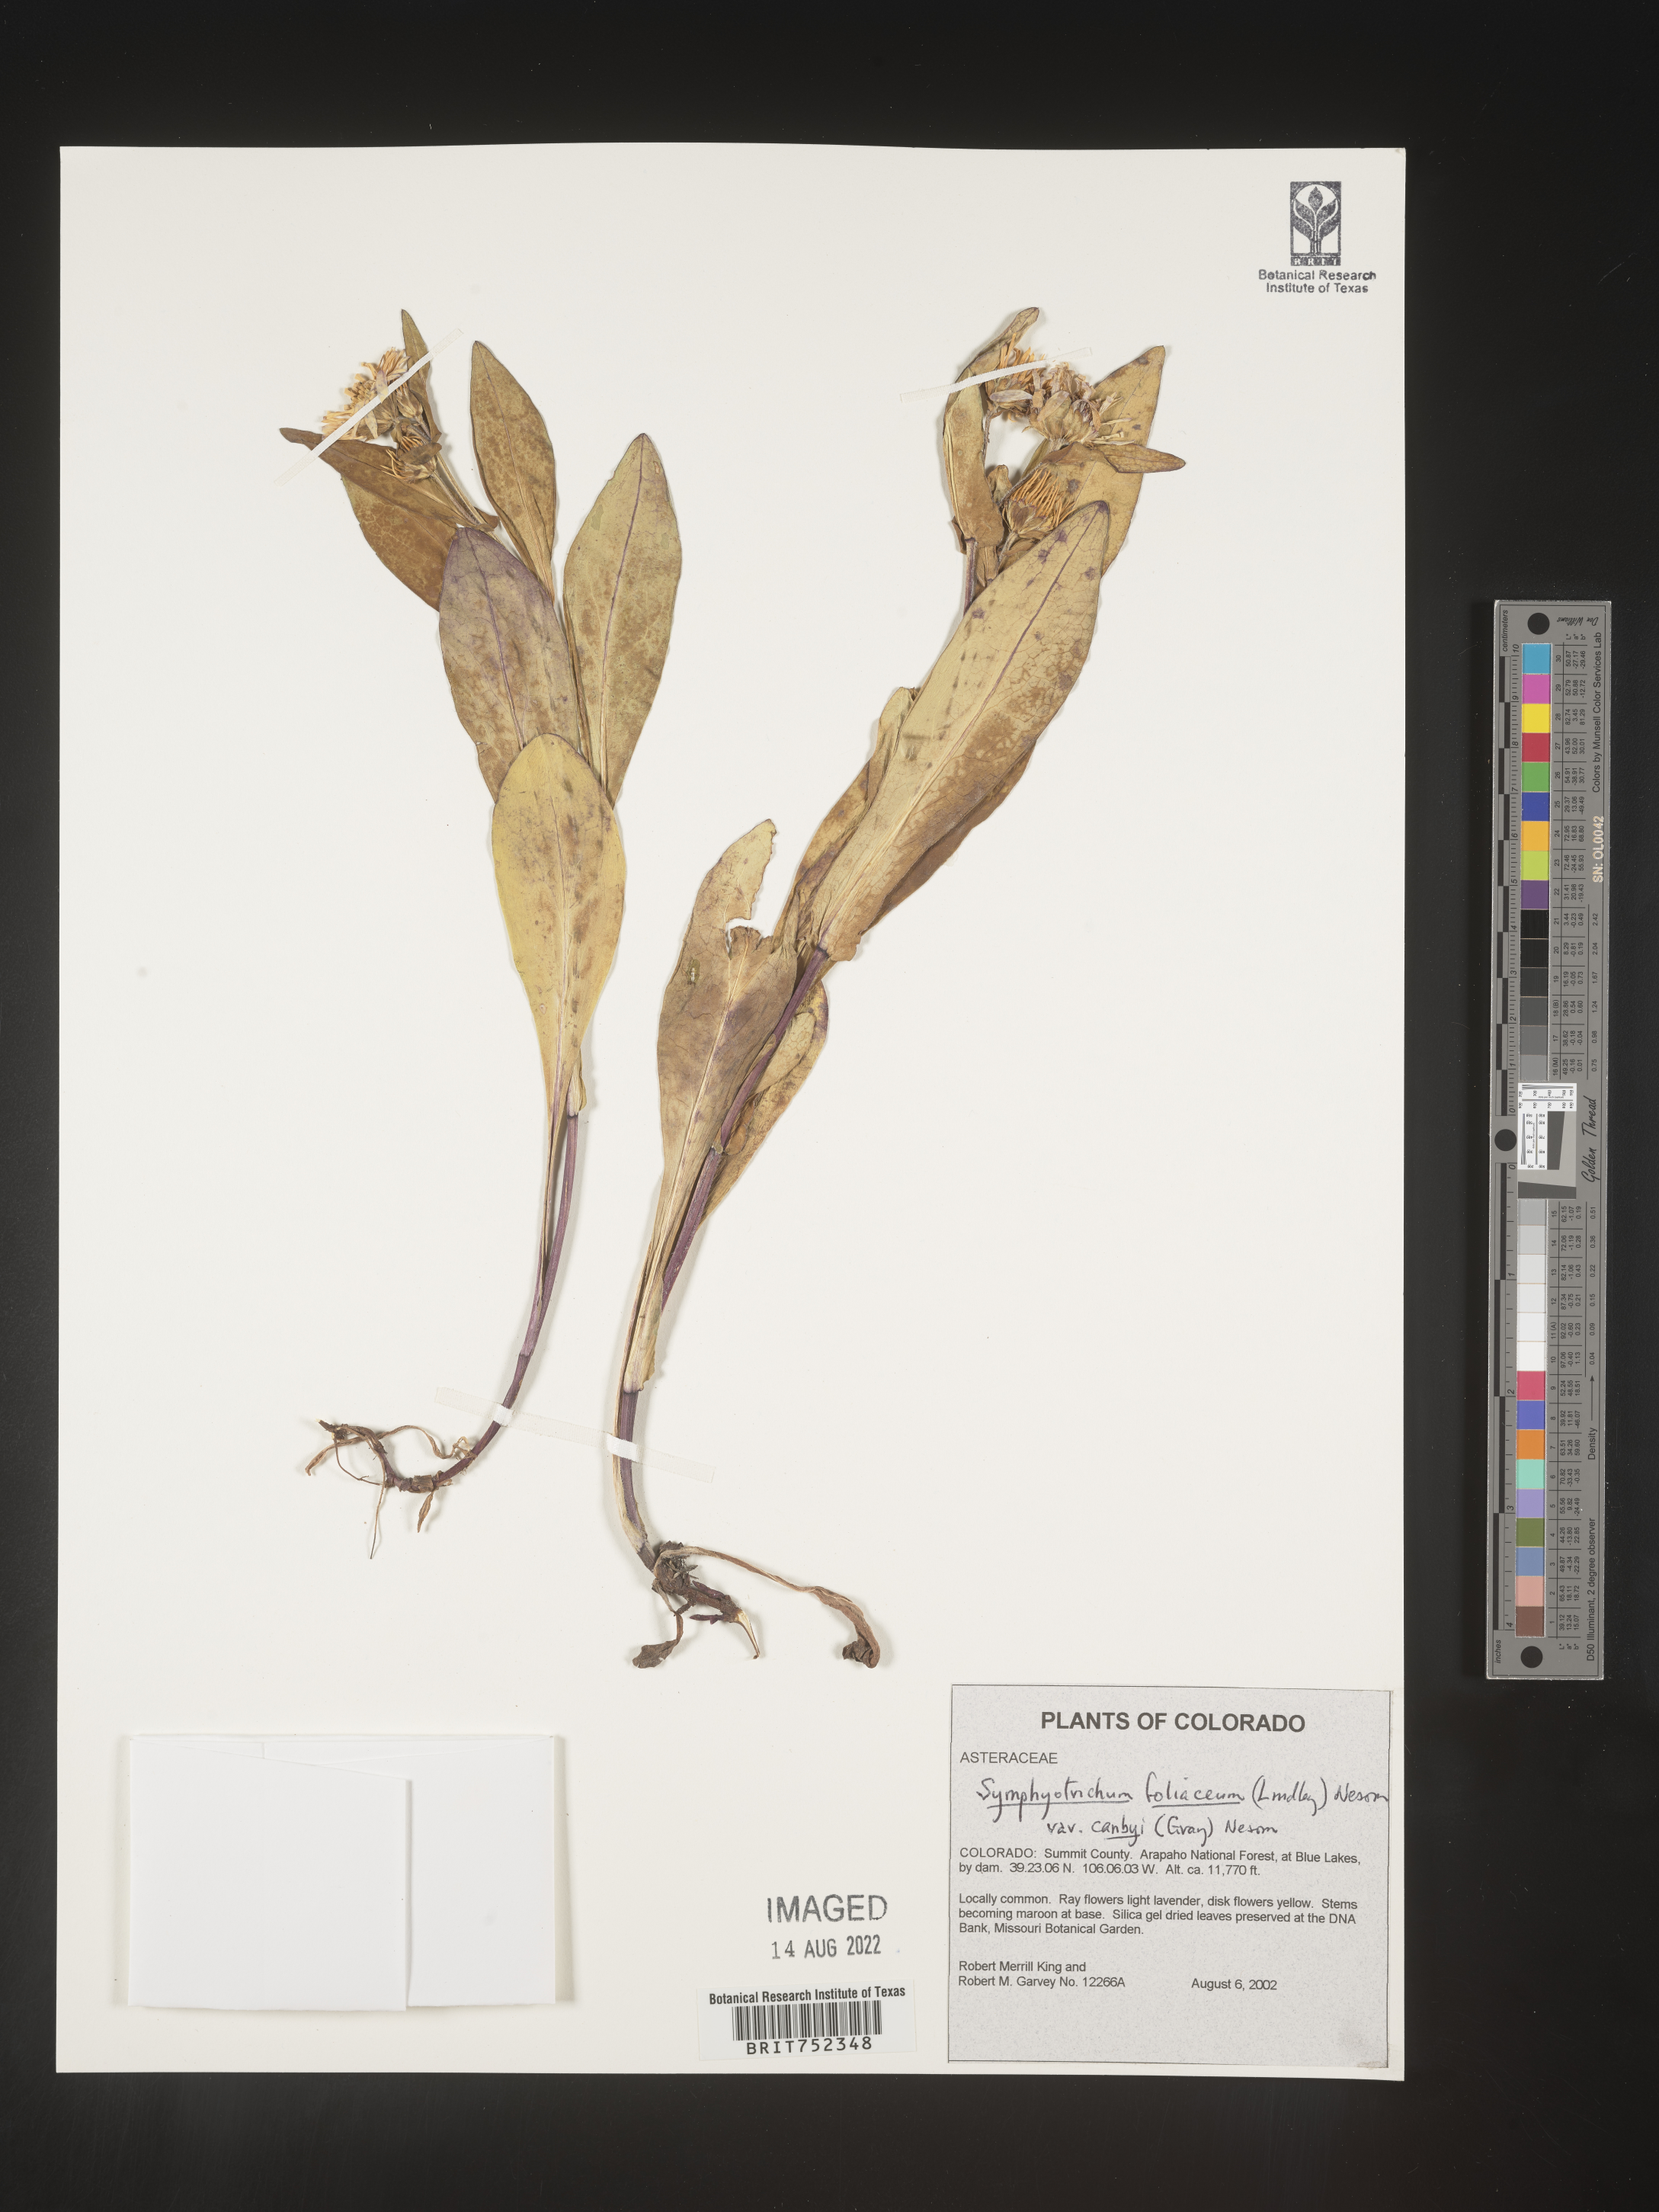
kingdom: Plantae
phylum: Tracheophyta
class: Magnoliopsida
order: Asterales
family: Asteraceae
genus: Symphyotrichum
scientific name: Symphyotrichum foliaceum
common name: Leafy aster
